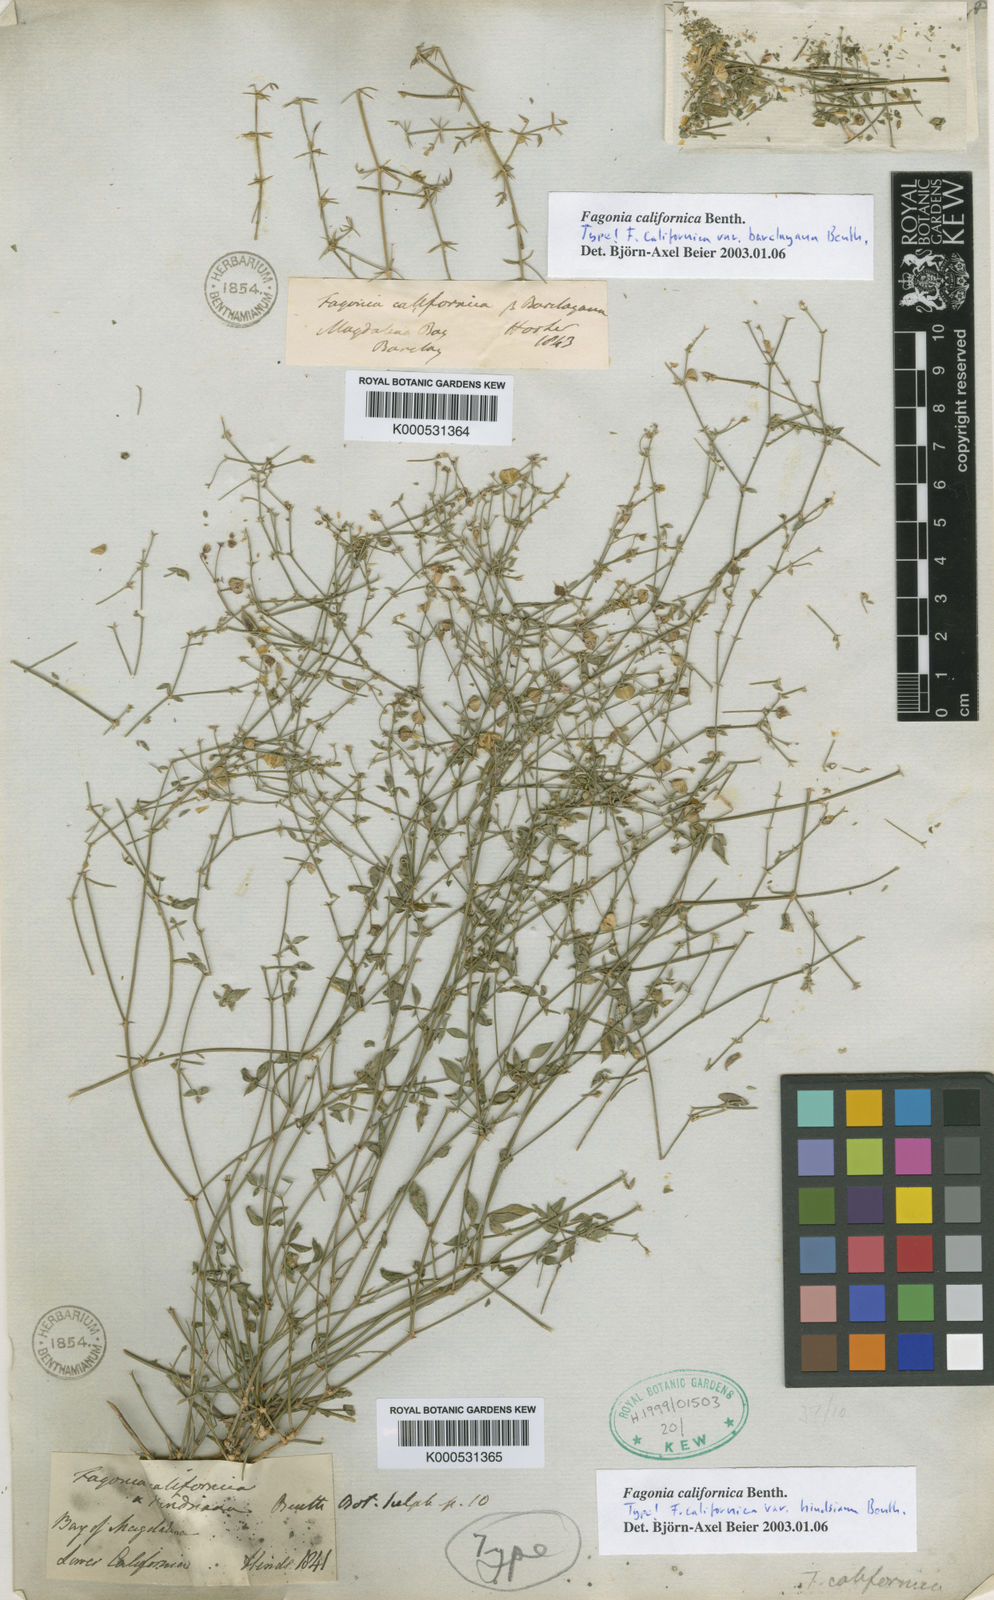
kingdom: Plantae
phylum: Tracheophyta
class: Magnoliopsida
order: Zygophyllales
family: Zygophyllaceae
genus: Fagonia
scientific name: Fagonia laevis
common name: California fagonbush
